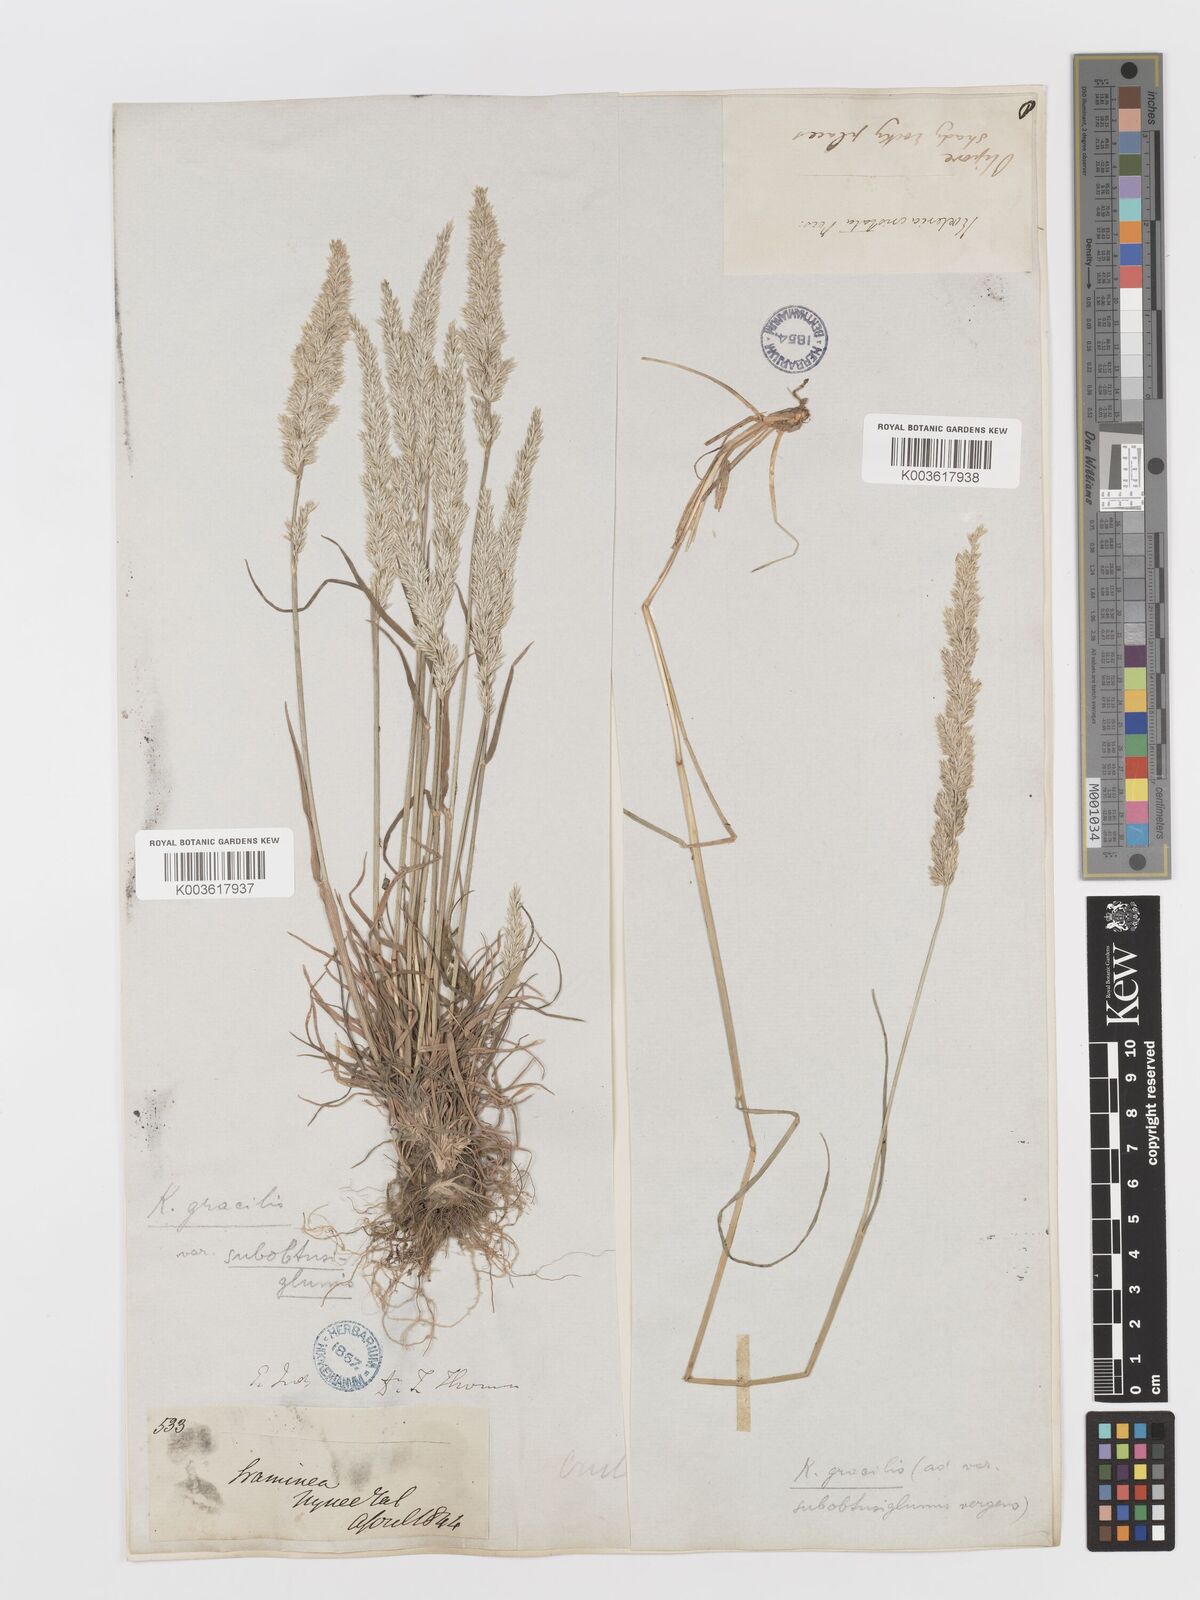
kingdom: Plantae
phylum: Tracheophyta
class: Liliopsida
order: Poales
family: Poaceae
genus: Koeleria
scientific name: Koeleria
